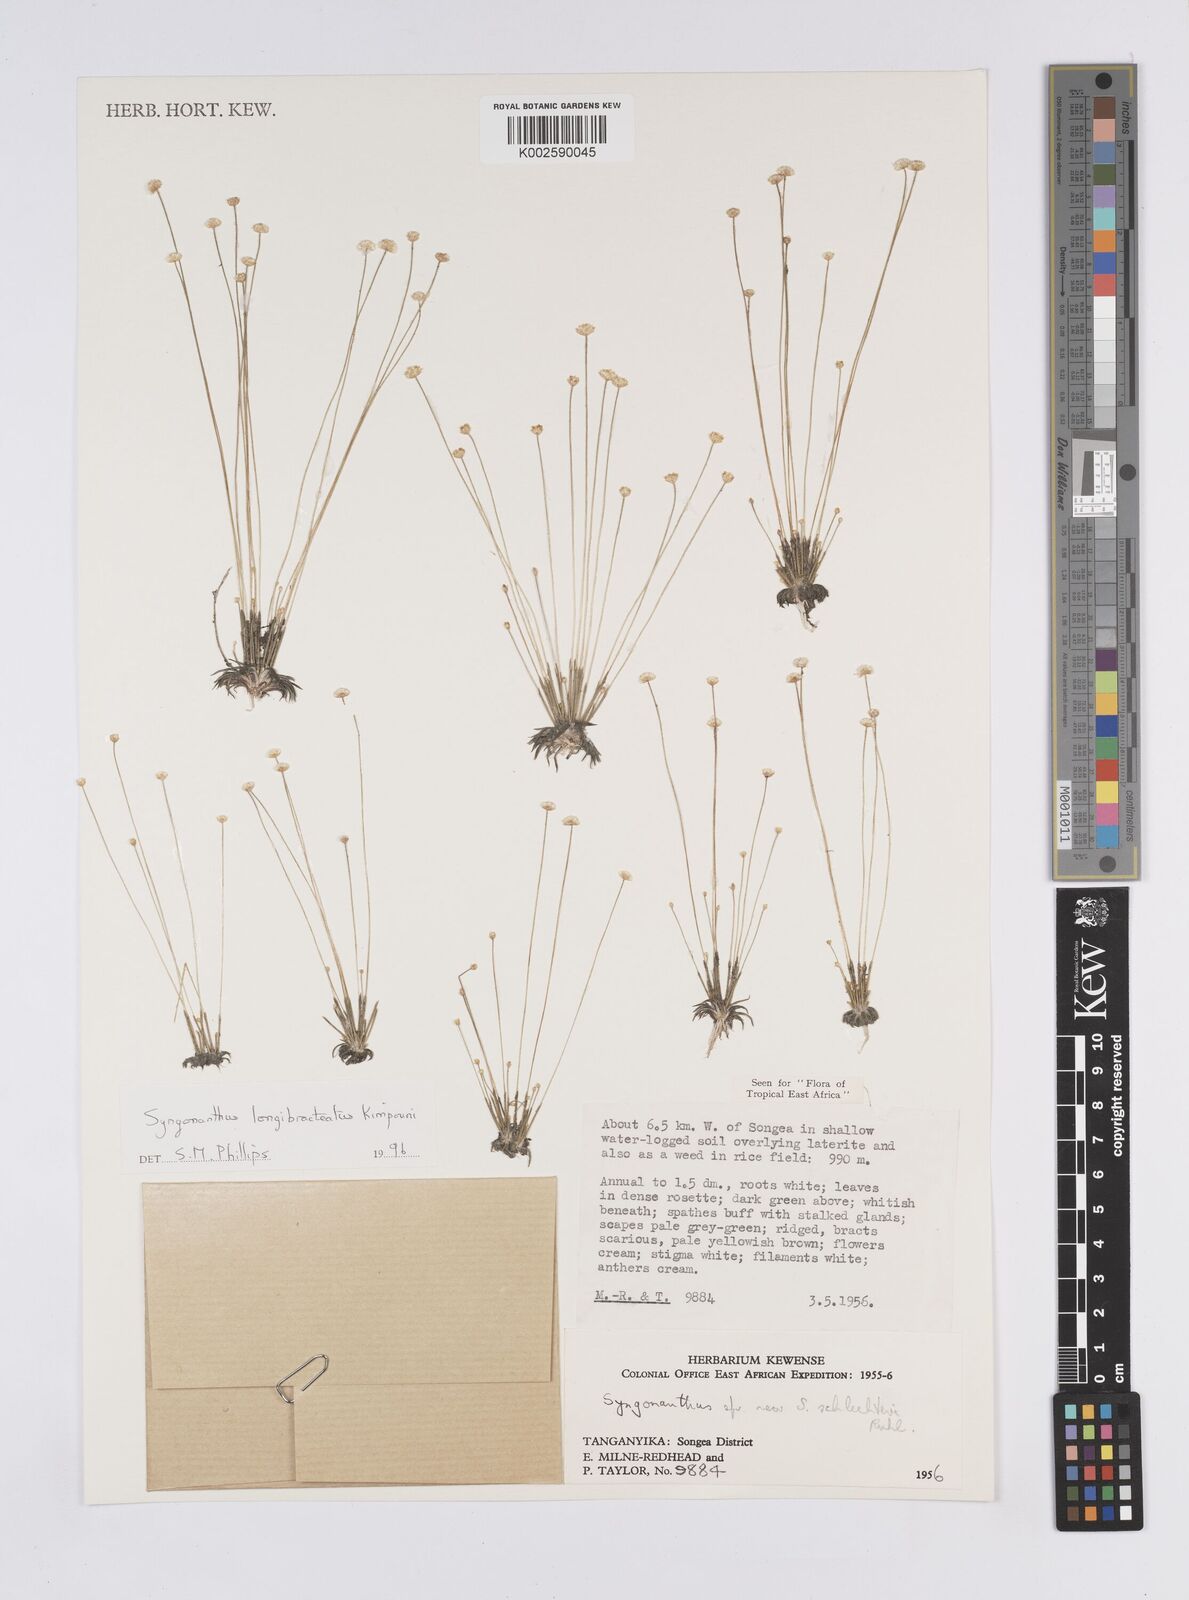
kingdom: Plantae
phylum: Tracheophyta
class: Liliopsida
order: Poales
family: Eriocaulaceae
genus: Syngonanthus
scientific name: Syngonanthus longibracteatus
